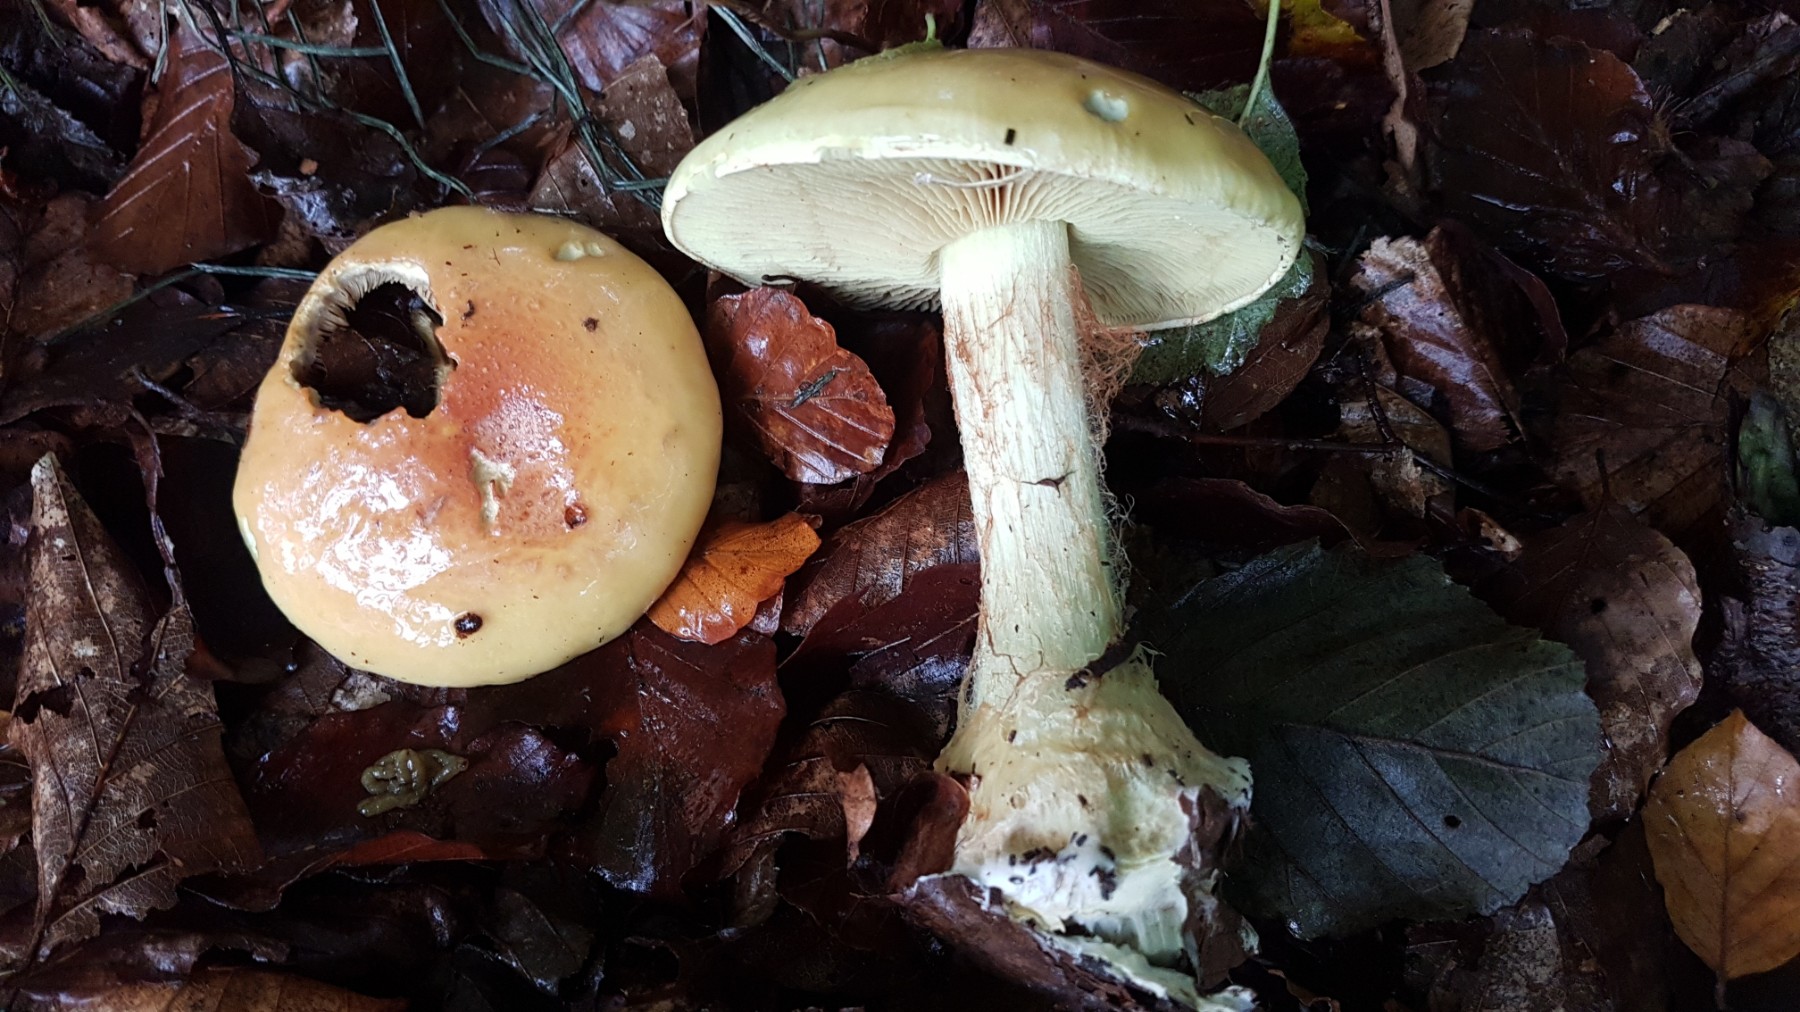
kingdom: Fungi
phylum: Basidiomycota
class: Agaricomycetes
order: Agaricales
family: Cortinariaceae
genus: Calonarius
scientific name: Calonarius elegantissimus
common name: orangegylden slørhat
